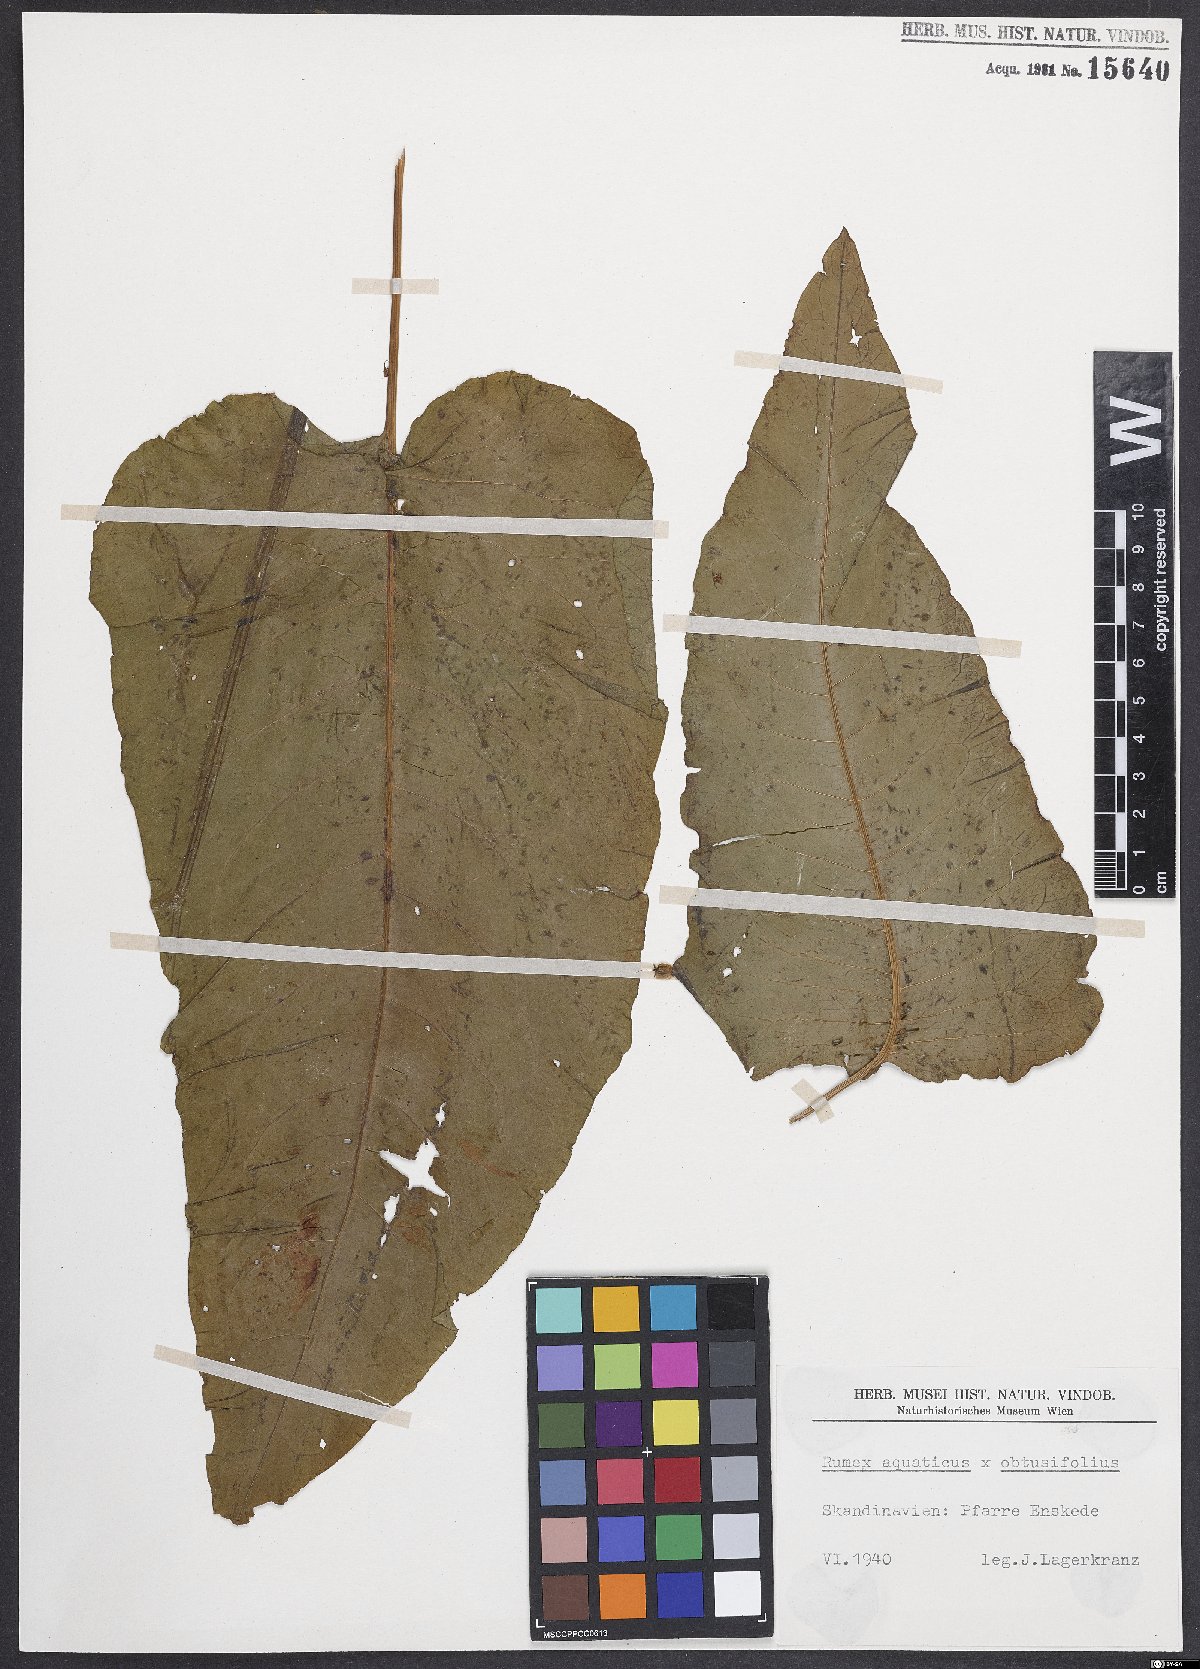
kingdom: Plantae
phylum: Tracheophyta
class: Magnoliopsida
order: Caryophyllales
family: Polygonaceae
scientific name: Polygonaceae
